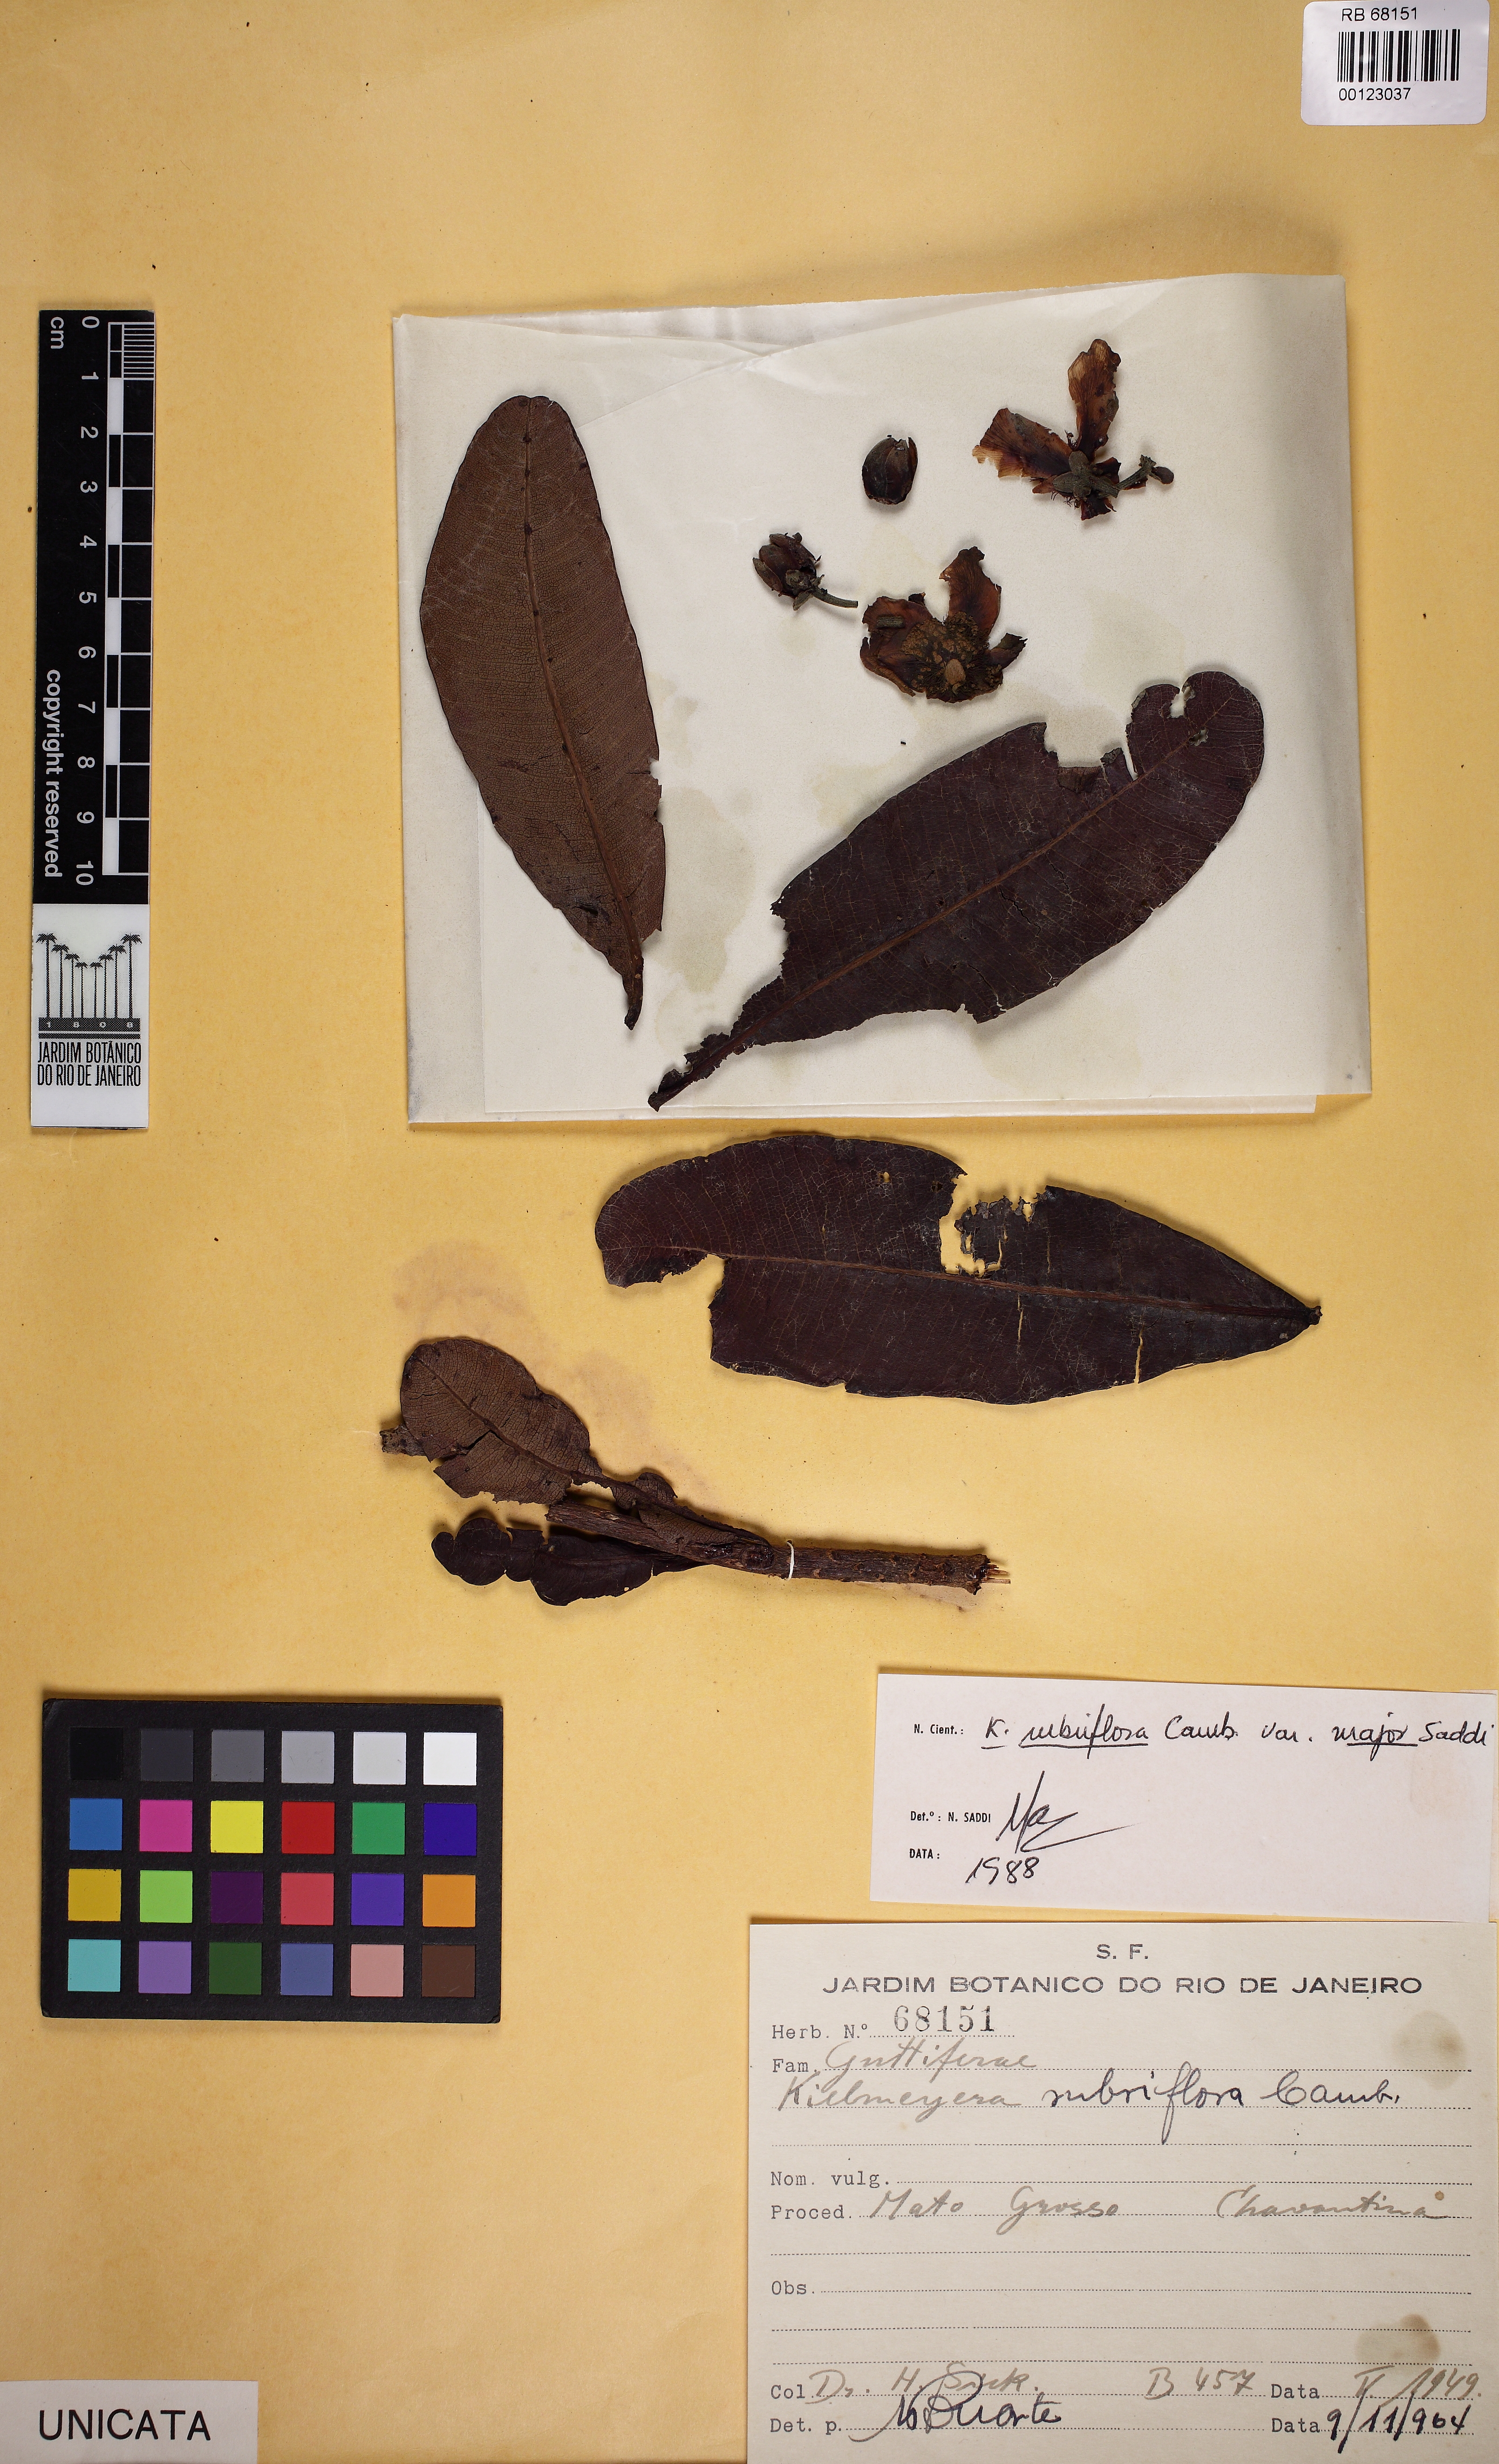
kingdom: Plantae
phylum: Tracheophyta
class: Magnoliopsida
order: Malpighiales
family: Calophyllaceae
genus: Kielmeyera
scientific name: Kielmeyera rubriflora
